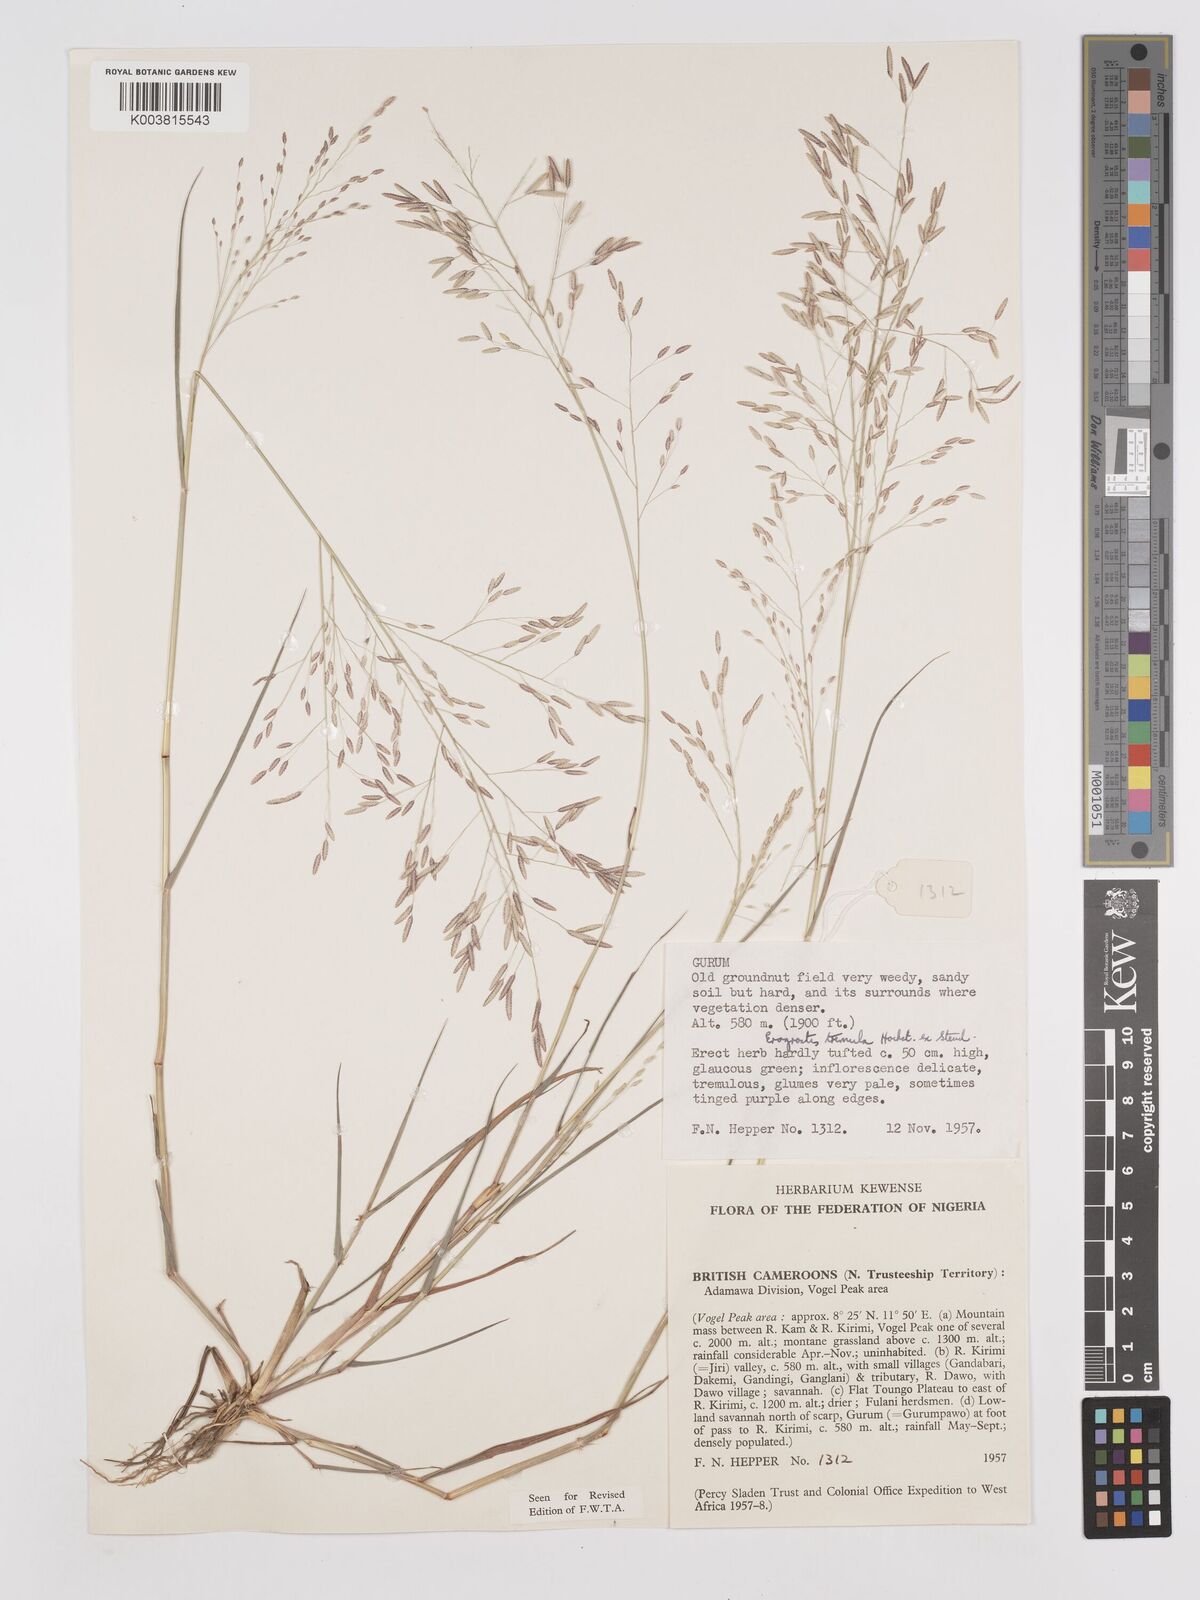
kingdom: Plantae
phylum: Tracheophyta
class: Liliopsida
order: Poales
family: Poaceae
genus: Eragrostis
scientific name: Eragrostis tremula
